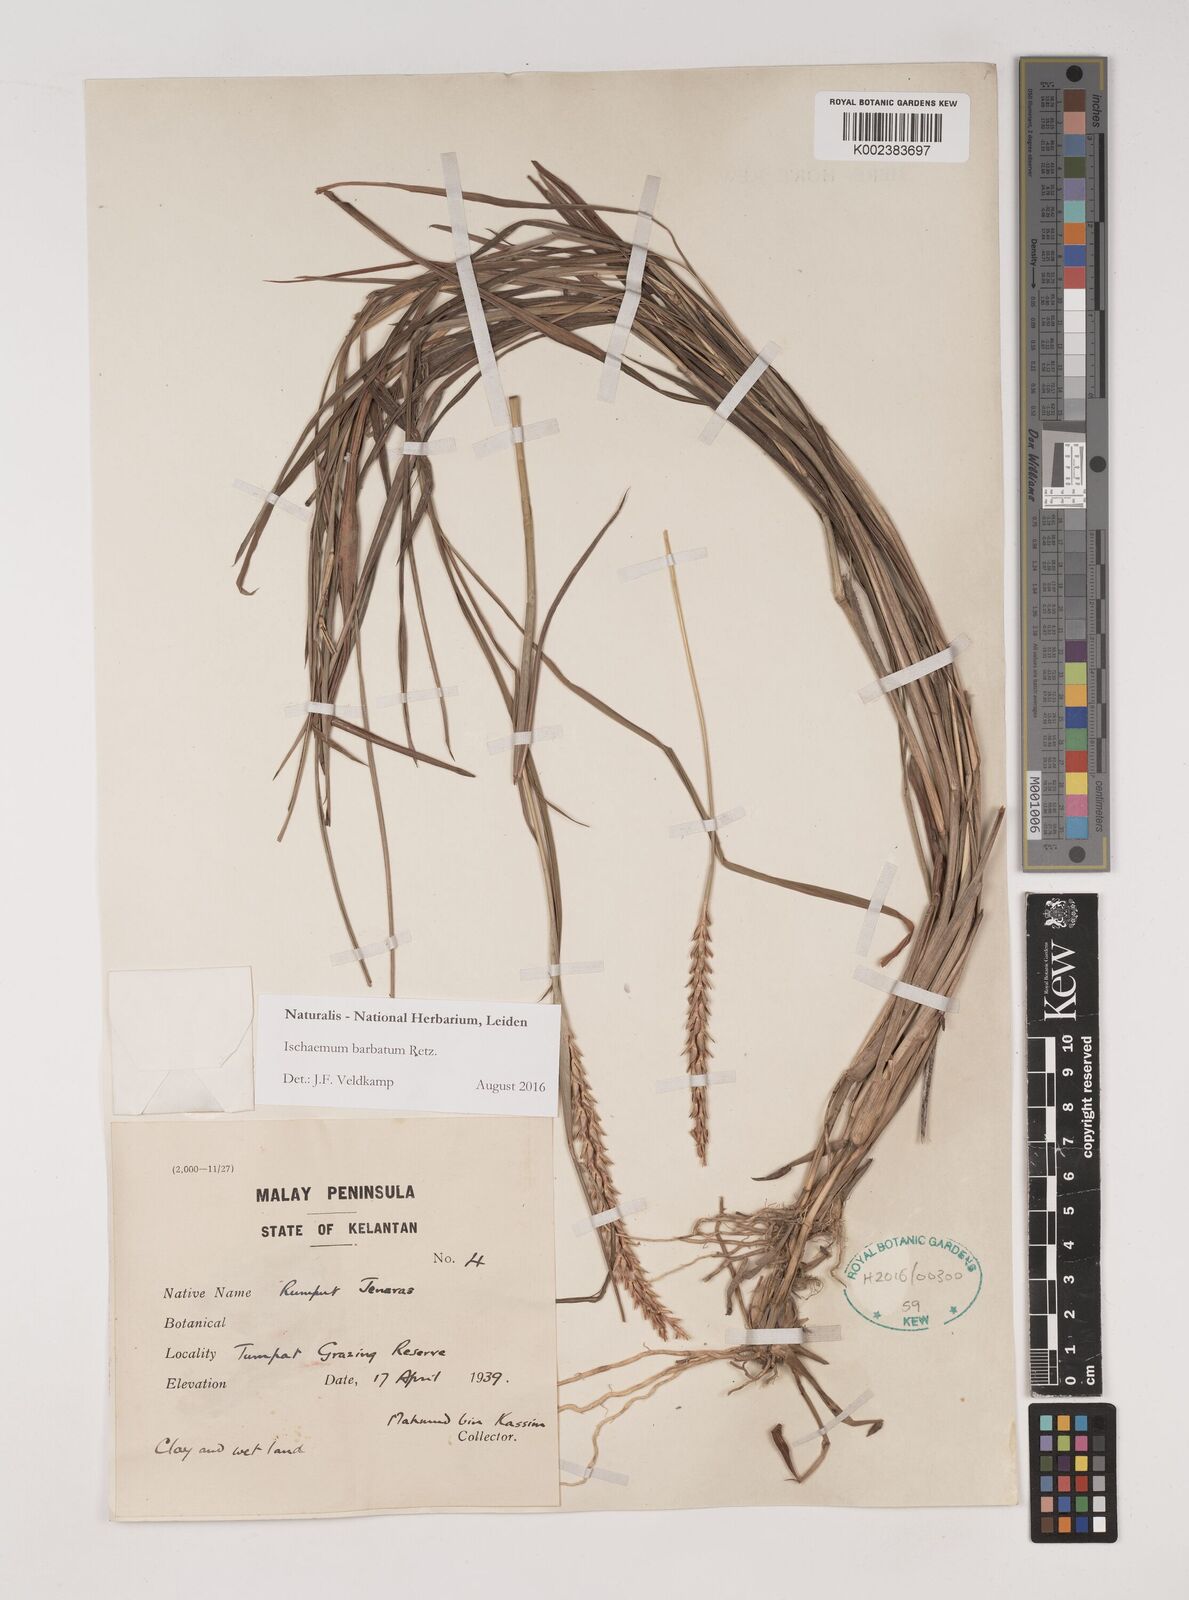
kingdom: Plantae
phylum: Tracheophyta
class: Liliopsida
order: Poales
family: Poaceae
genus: Ischaemum
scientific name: Ischaemum barbatum
